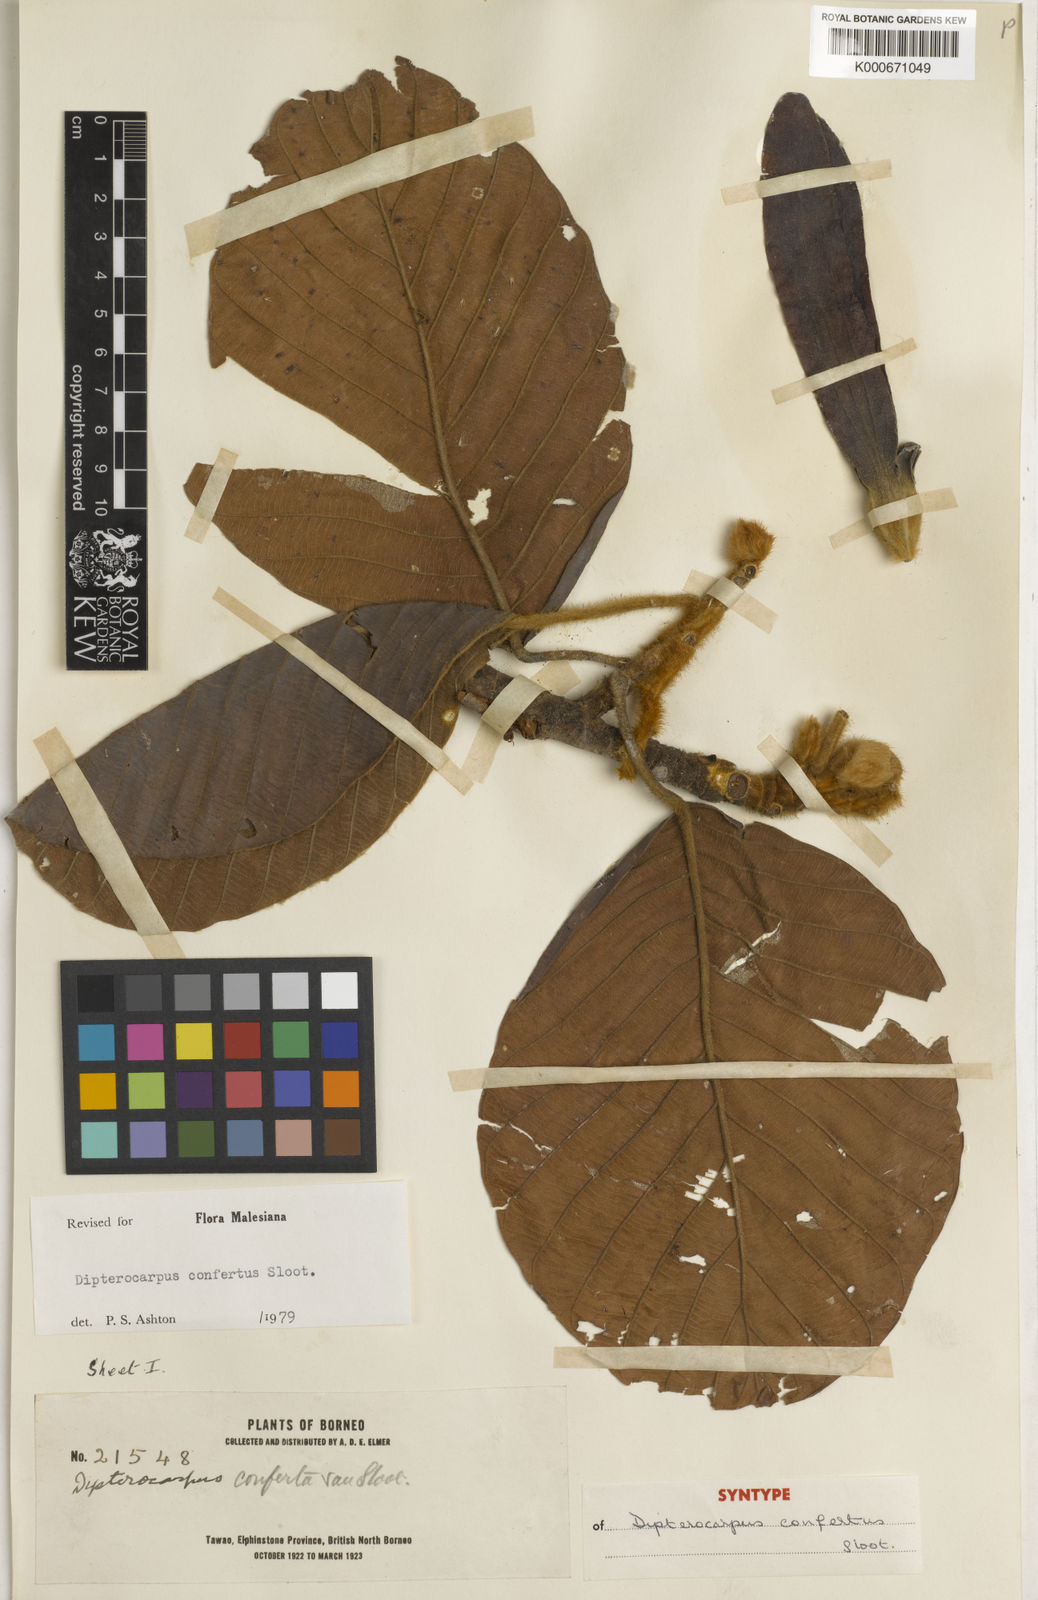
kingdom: Plantae
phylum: Tracheophyta
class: Magnoliopsida
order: Malvales
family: Dipterocarpaceae
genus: Dipterocarpus
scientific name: Dipterocarpus confertus
